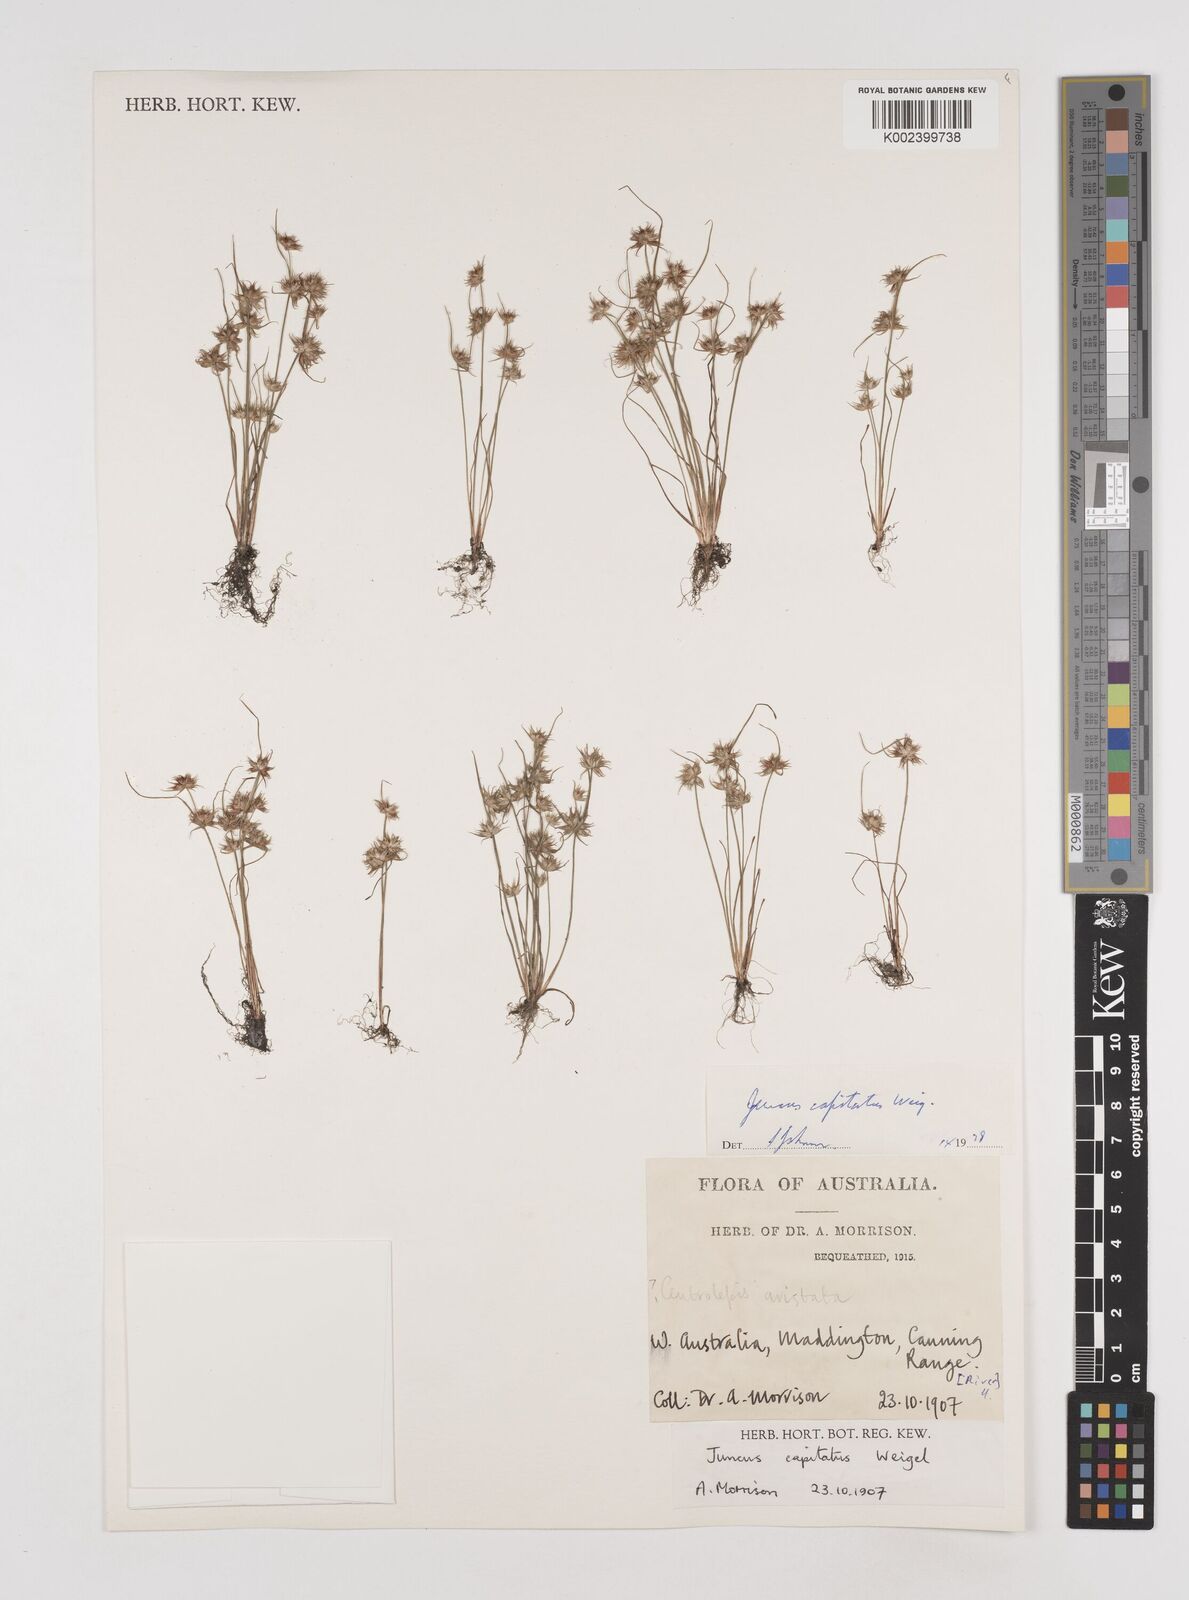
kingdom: Plantae
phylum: Tracheophyta
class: Liliopsida
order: Poales
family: Juncaceae
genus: Juncus
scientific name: Juncus capitatus
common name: Dwarf rush
